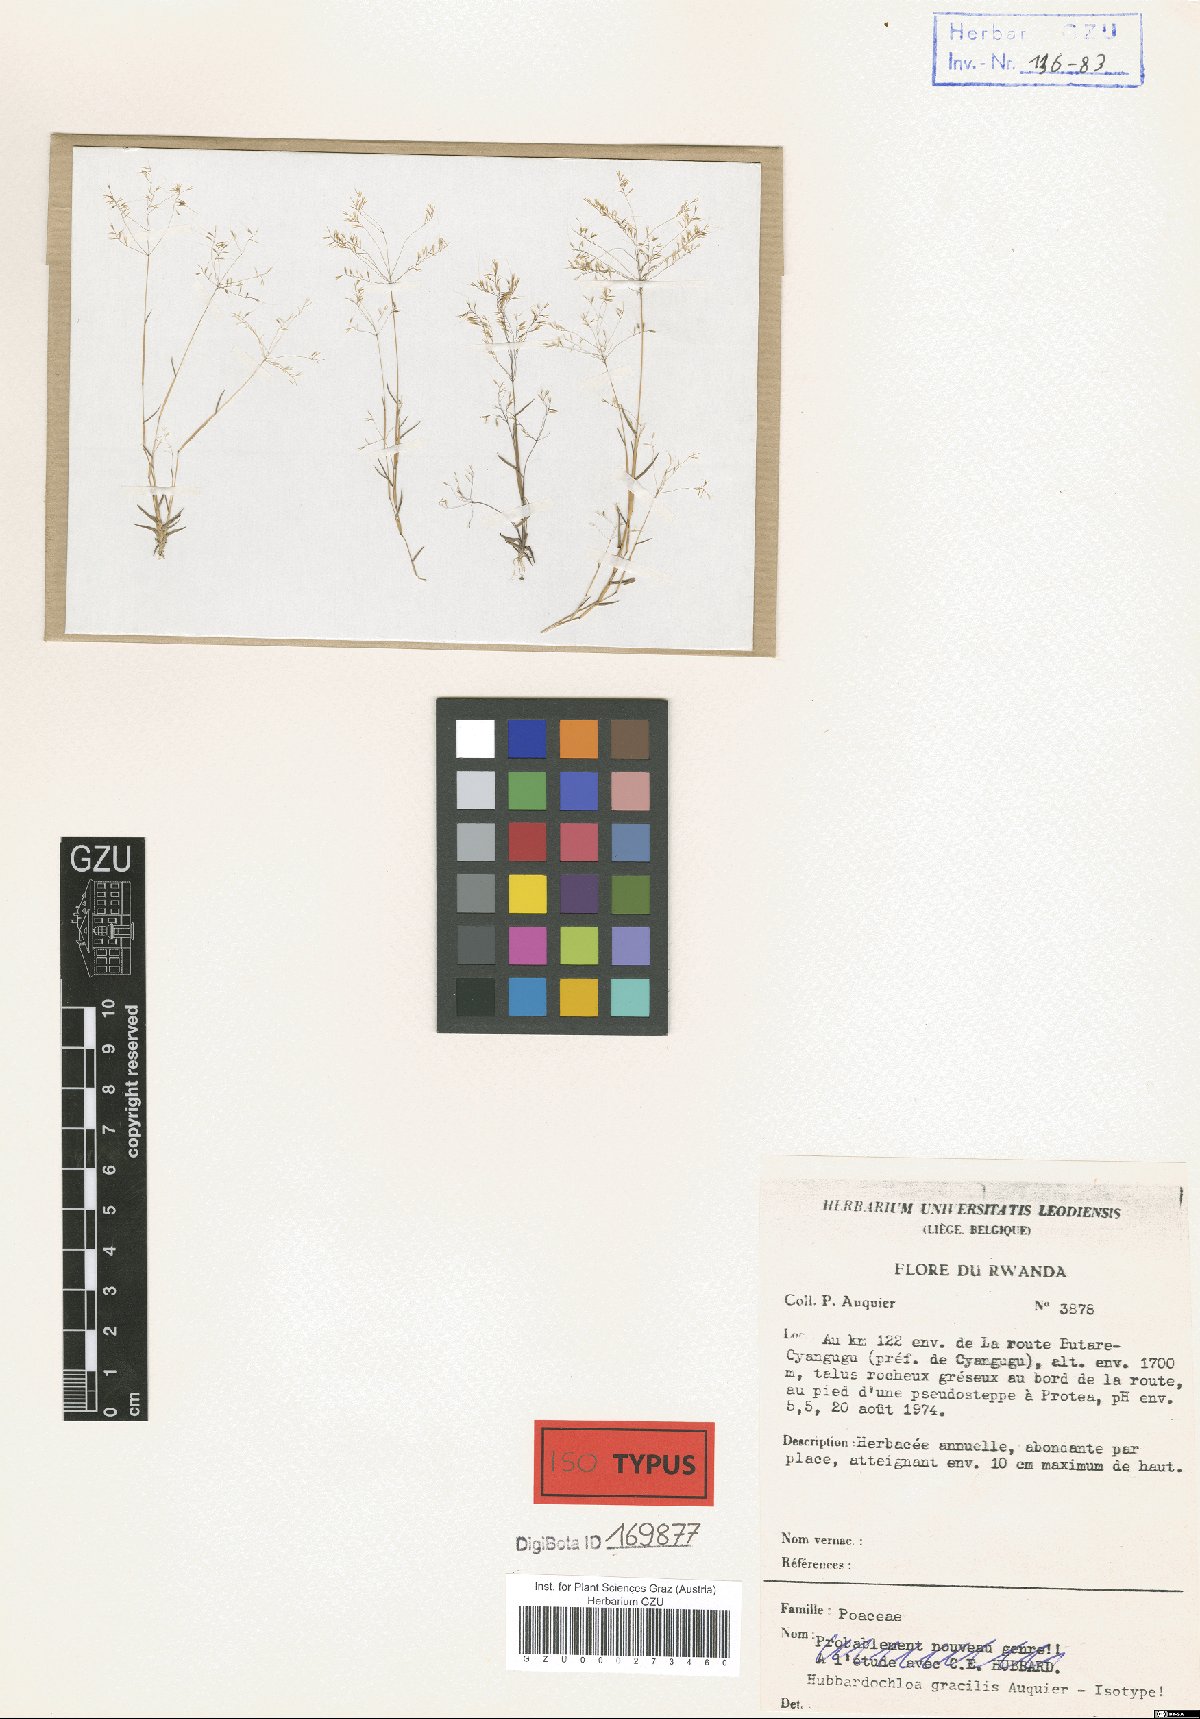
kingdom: Plantae
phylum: Tracheophyta
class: Liliopsida
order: Poales
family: Poaceae
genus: Hubbardochloa
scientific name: Hubbardochloa gracilis
